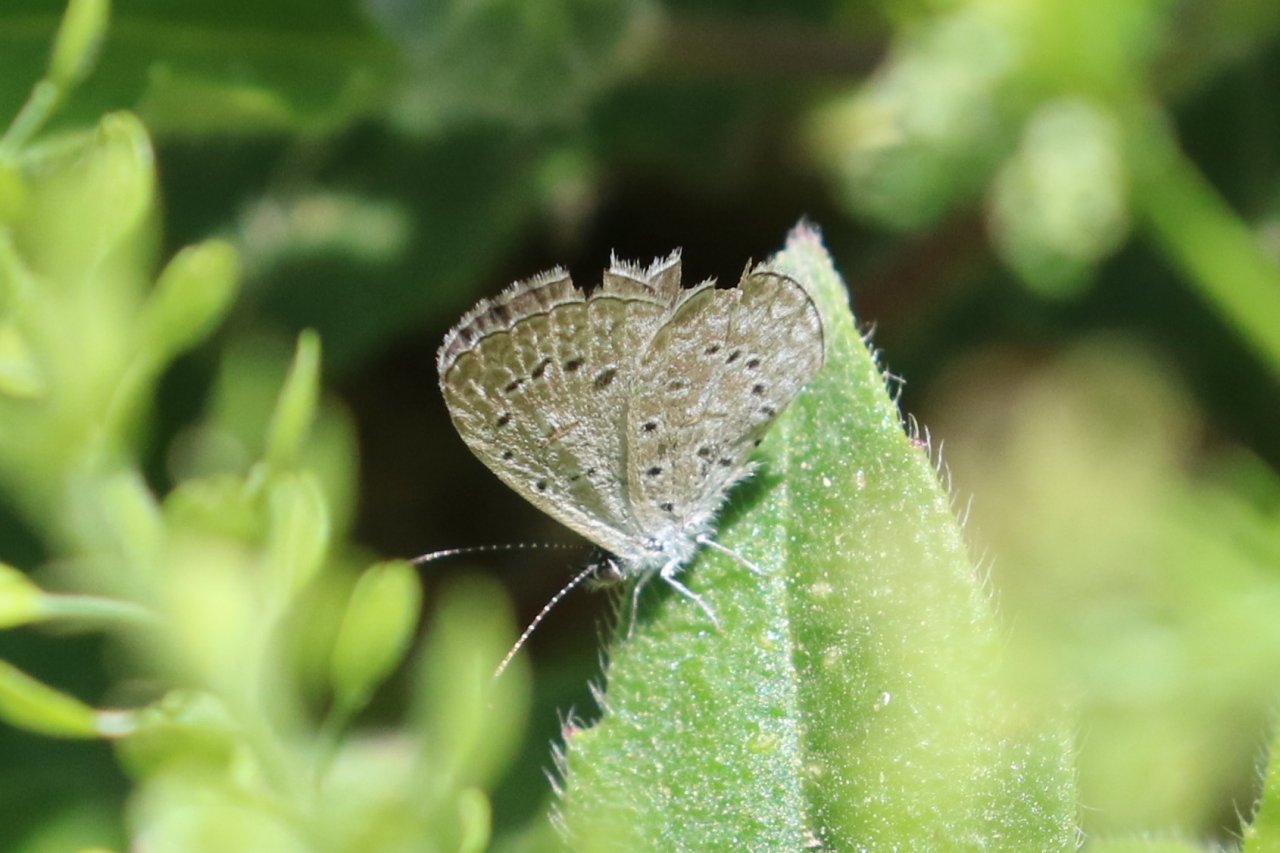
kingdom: Animalia
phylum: Arthropoda
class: Insecta
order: Lepidoptera
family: Lycaenidae
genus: Lycaena
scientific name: Lycaena cyna
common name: Cyna Blue
